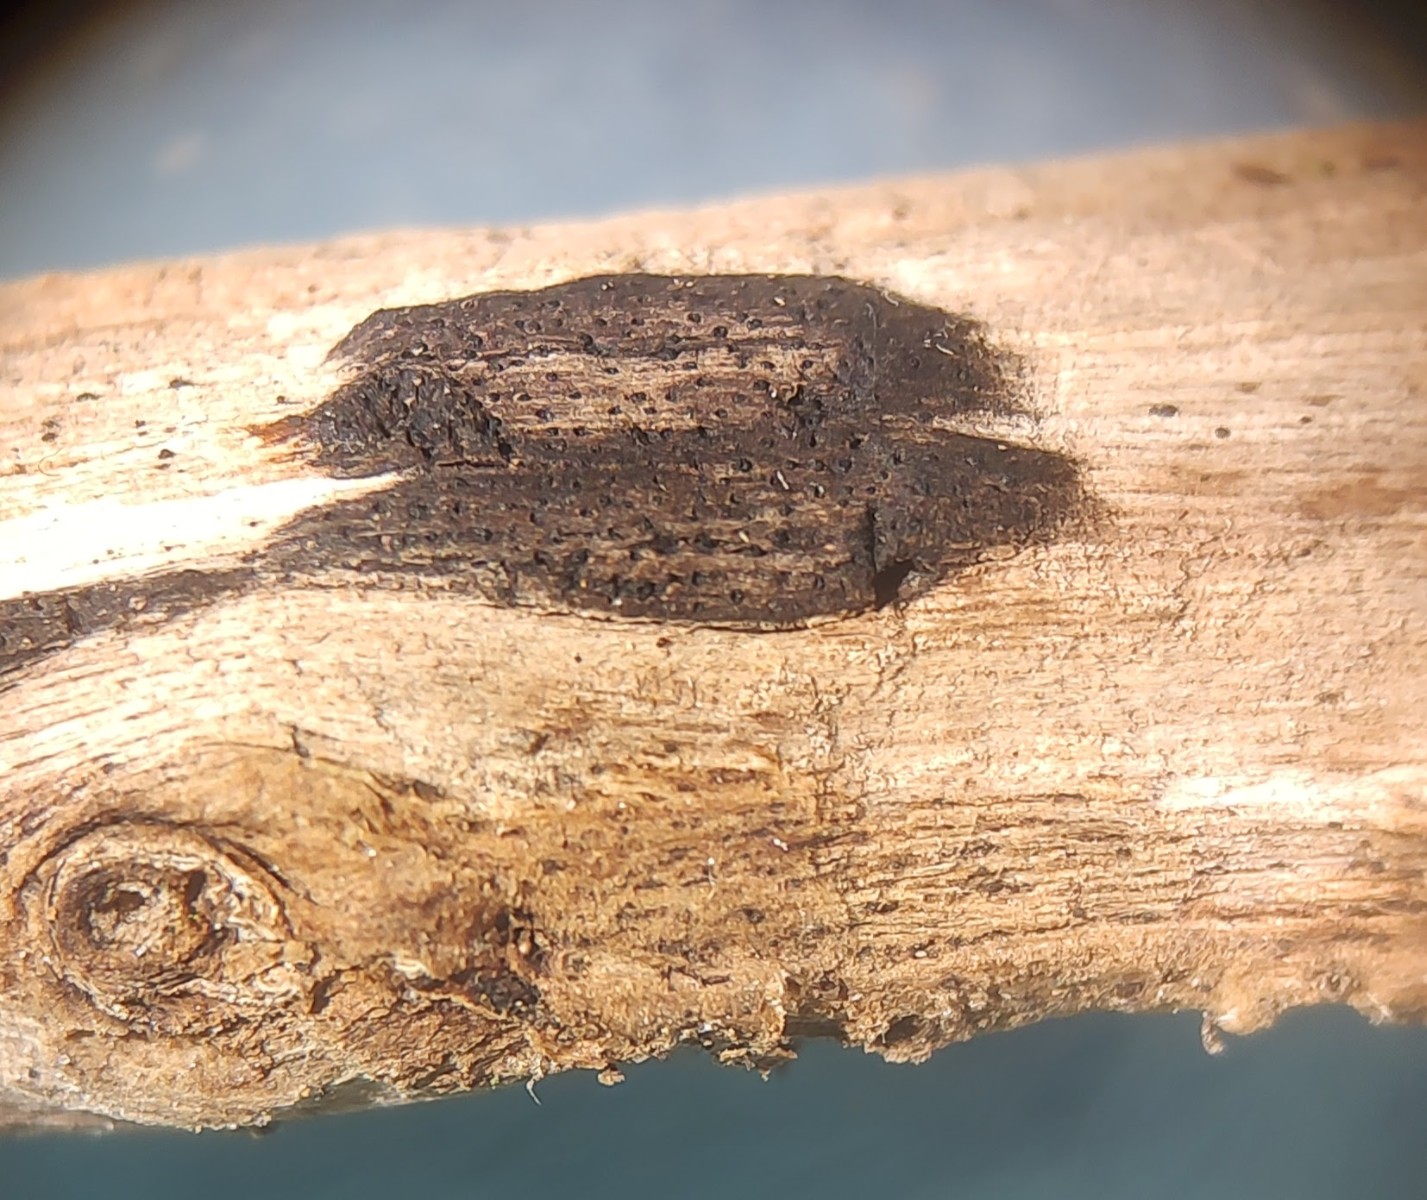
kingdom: Fungi
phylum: Ascomycota
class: Sordariomycetes
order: Xylariales
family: Diatrypaceae
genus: Eutypa
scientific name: Eutypa lata
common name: almindelig kulskorpe
